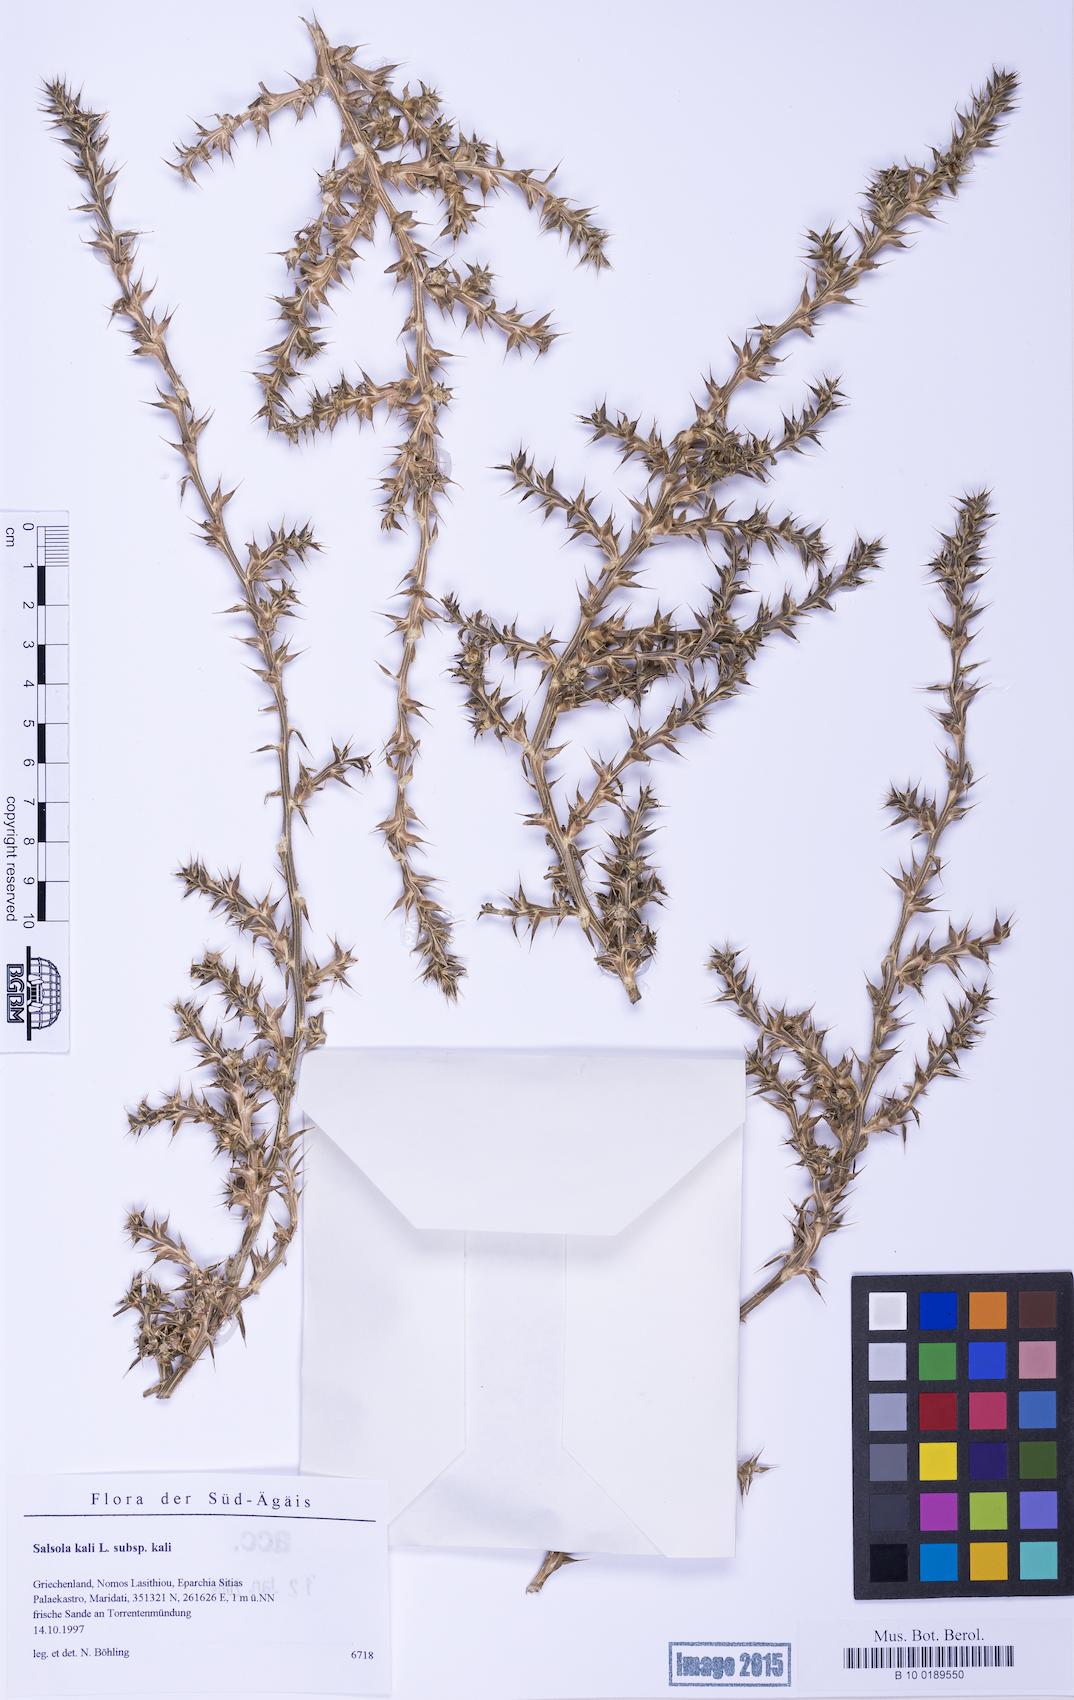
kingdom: Plantae
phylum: Tracheophyta
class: Magnoliopsida
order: Caryophyllales
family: Amaranthaceae
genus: Salsola
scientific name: Salsola squarrosa
